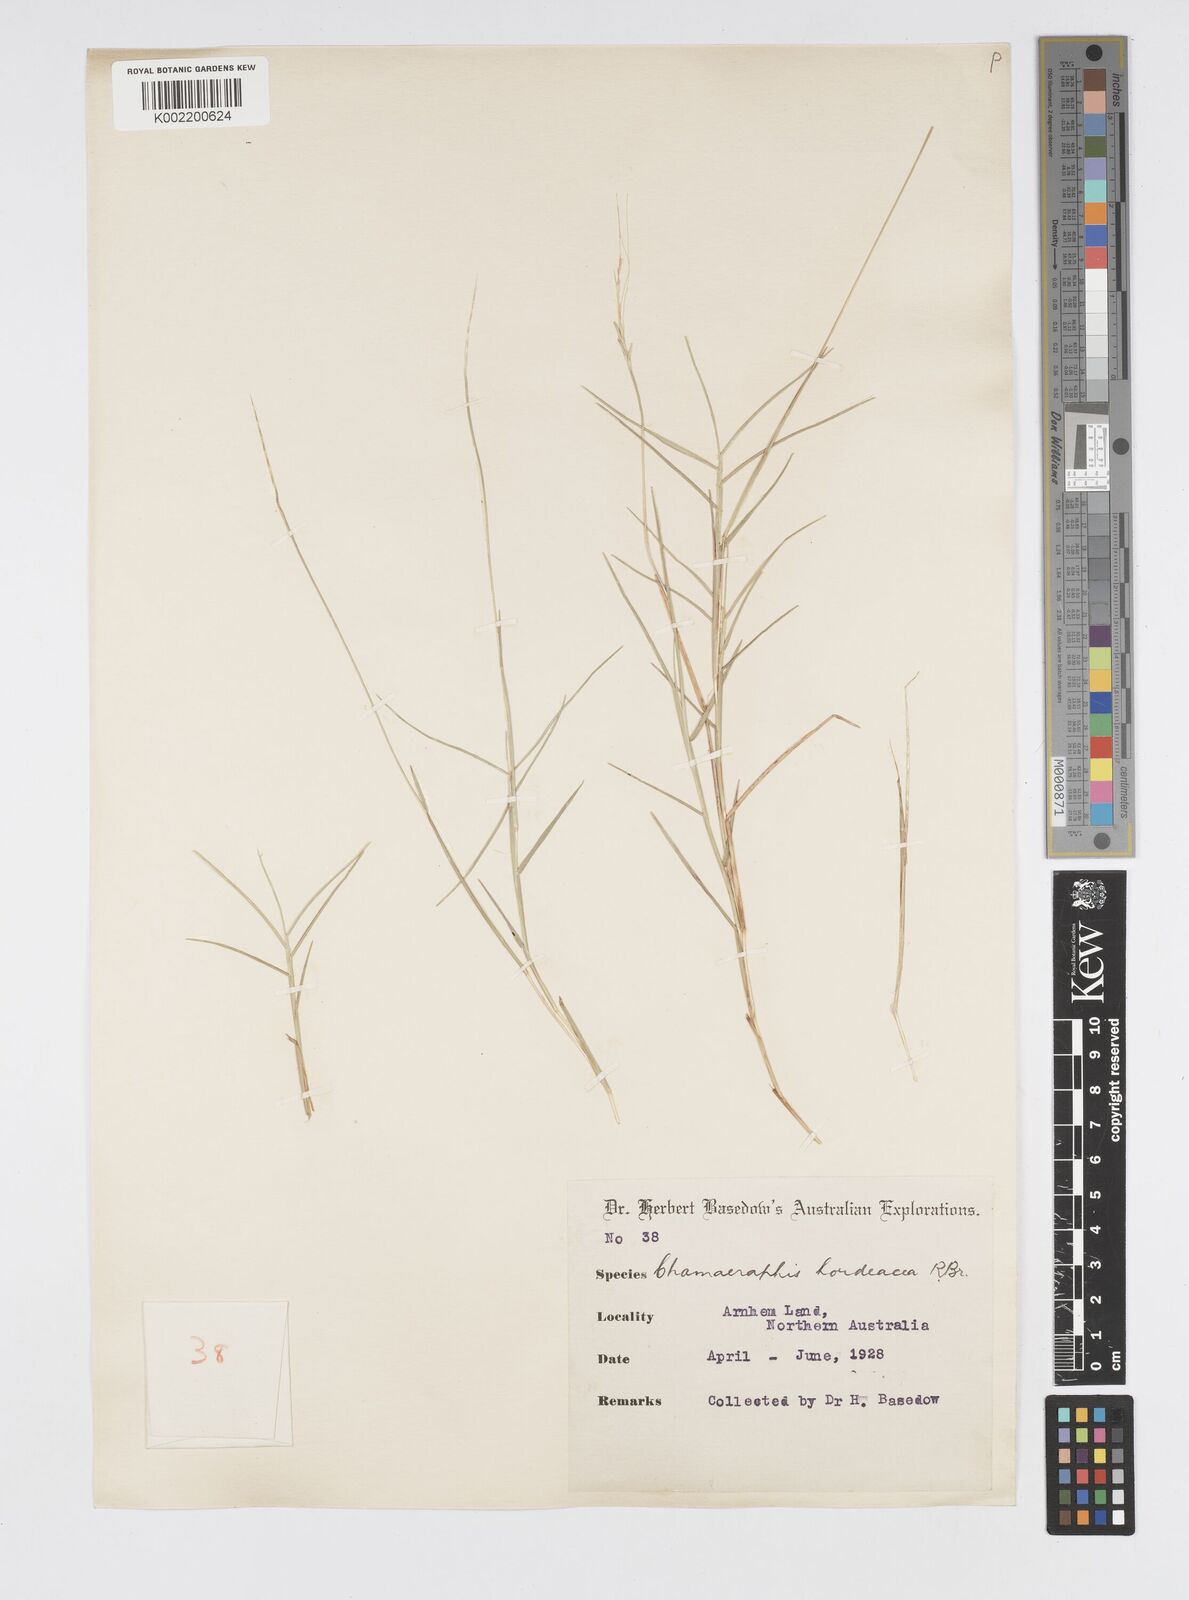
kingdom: Plantae
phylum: Tracheophyta
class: Liliopsida
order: Poales
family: Poaceae
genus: Chamaeraphis
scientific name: Chamaeraphis hordeacea
